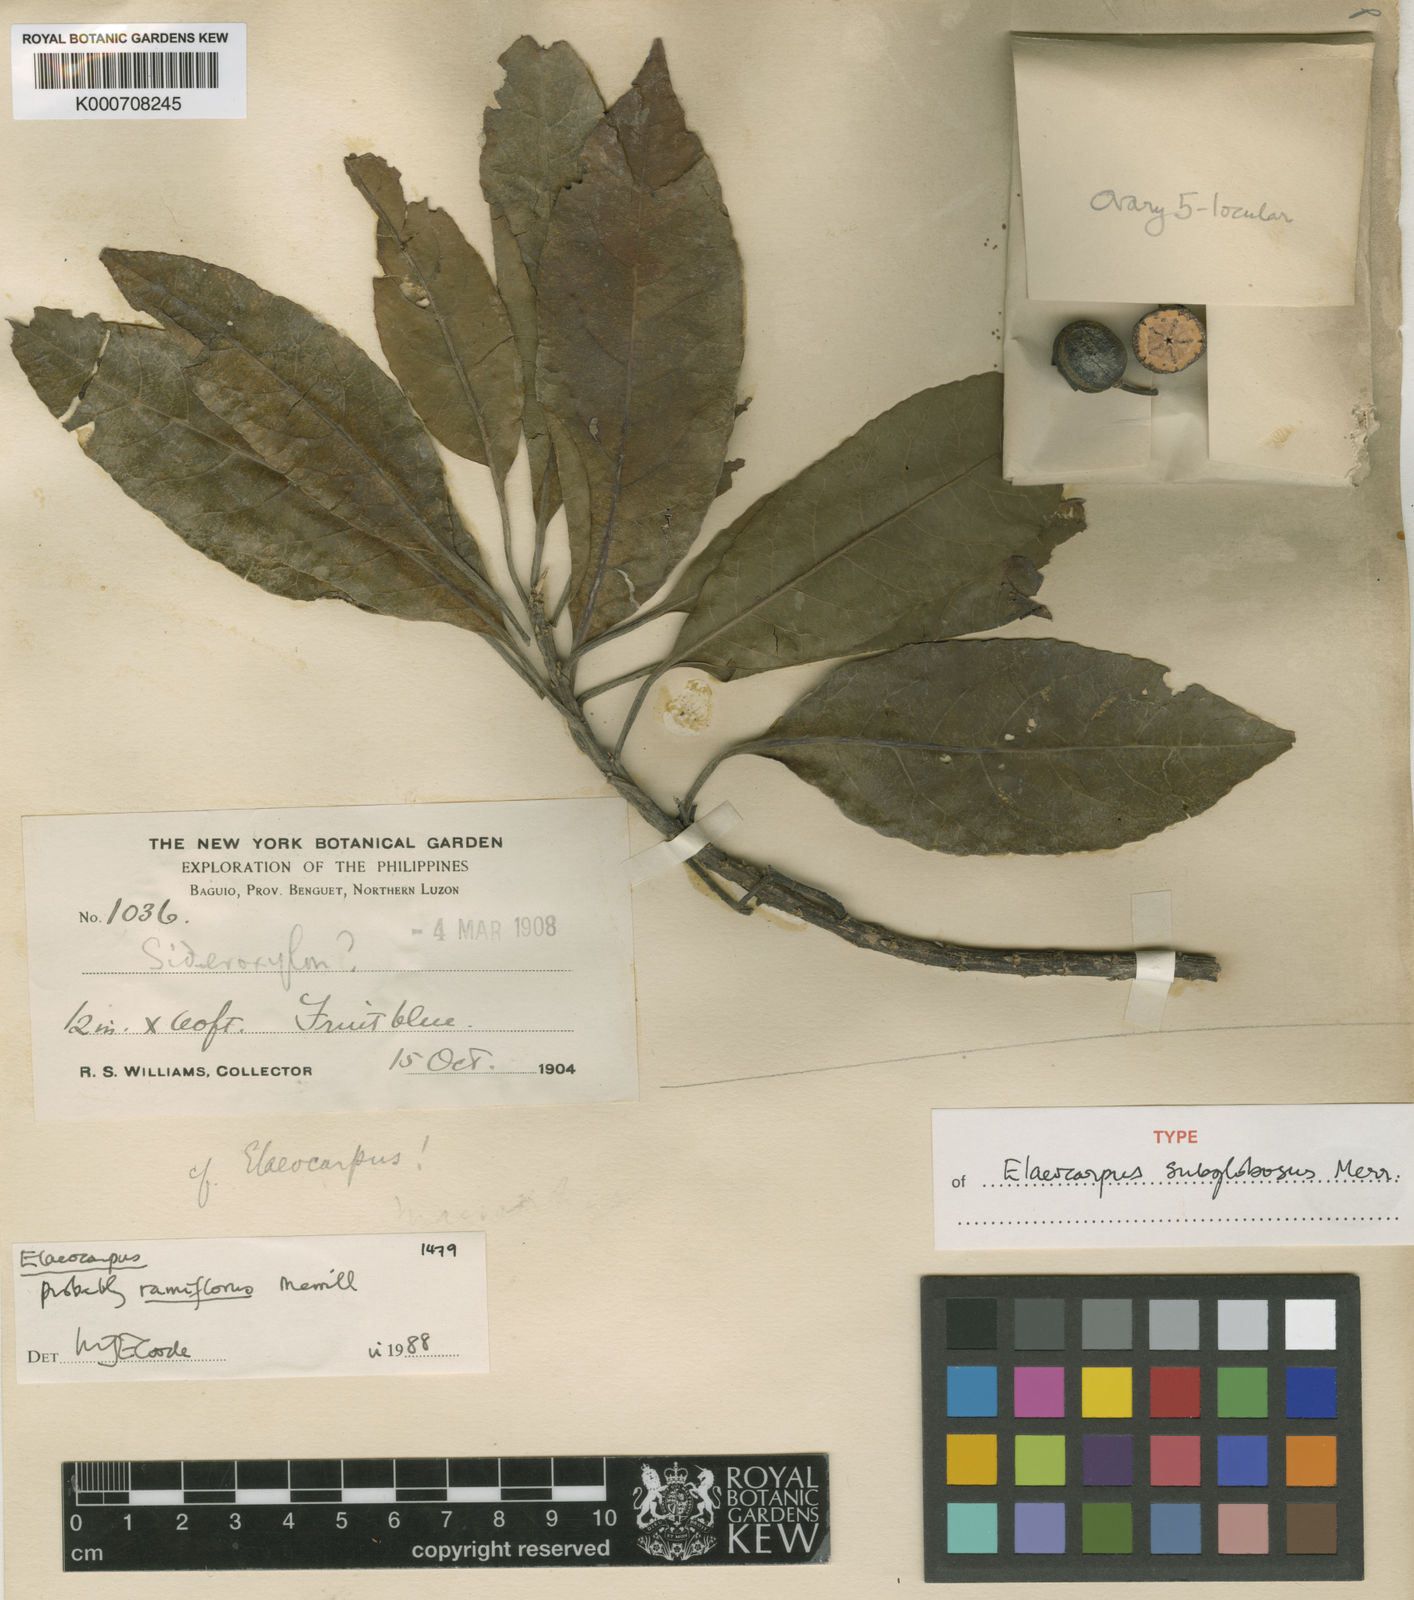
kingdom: Plantae
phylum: Tracheophyta
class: Magnoliopsida
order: Oxalidales
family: Elaeocarpaceae
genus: Elaeocarpus
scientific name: Elaeocarpus angustifolius
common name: Blue marble tree
